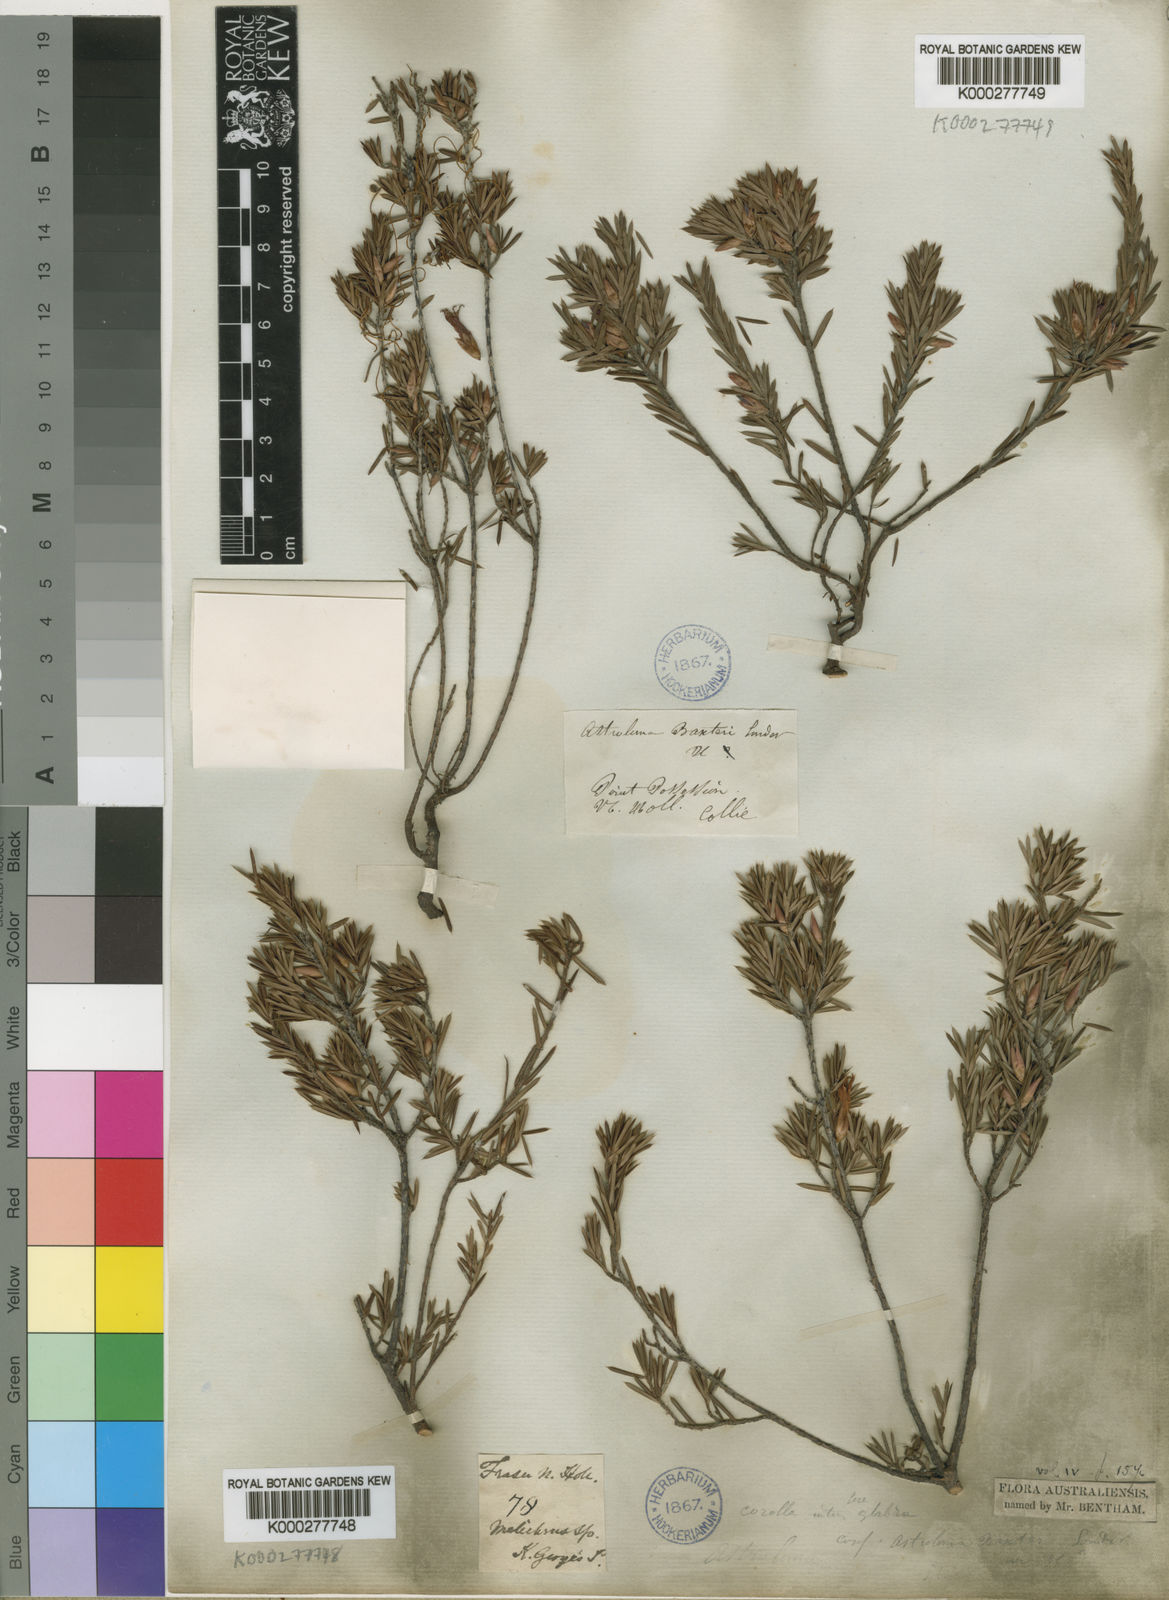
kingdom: Plantae
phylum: Tracheophyta
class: Magnoliopsida
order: Ericales
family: Ericaceae
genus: Brachyloma
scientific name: Brachyloma baxteri
